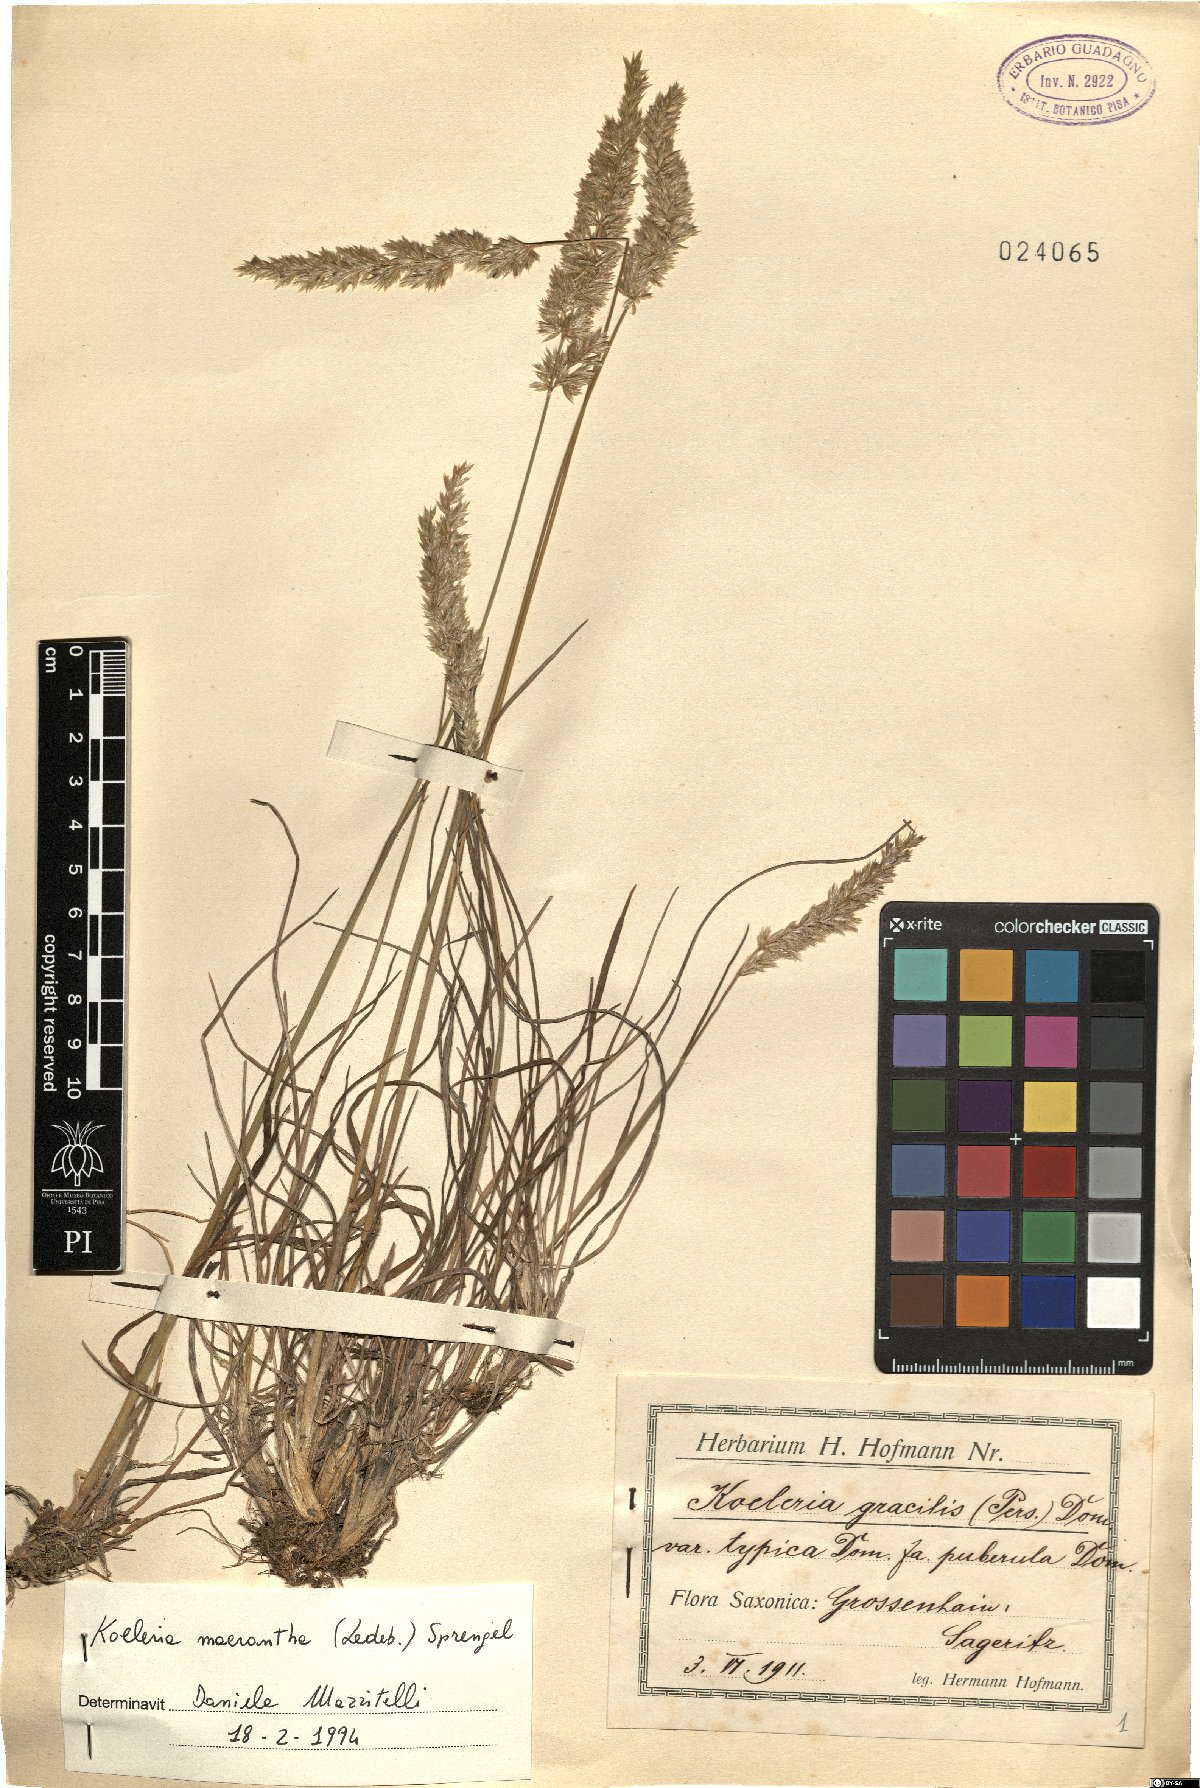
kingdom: Plantae
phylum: Tracheophyta
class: Liliopsida
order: Poales
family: Poaceae
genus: Koeleria
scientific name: Koeleria macrantha
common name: Crested hair-grass
